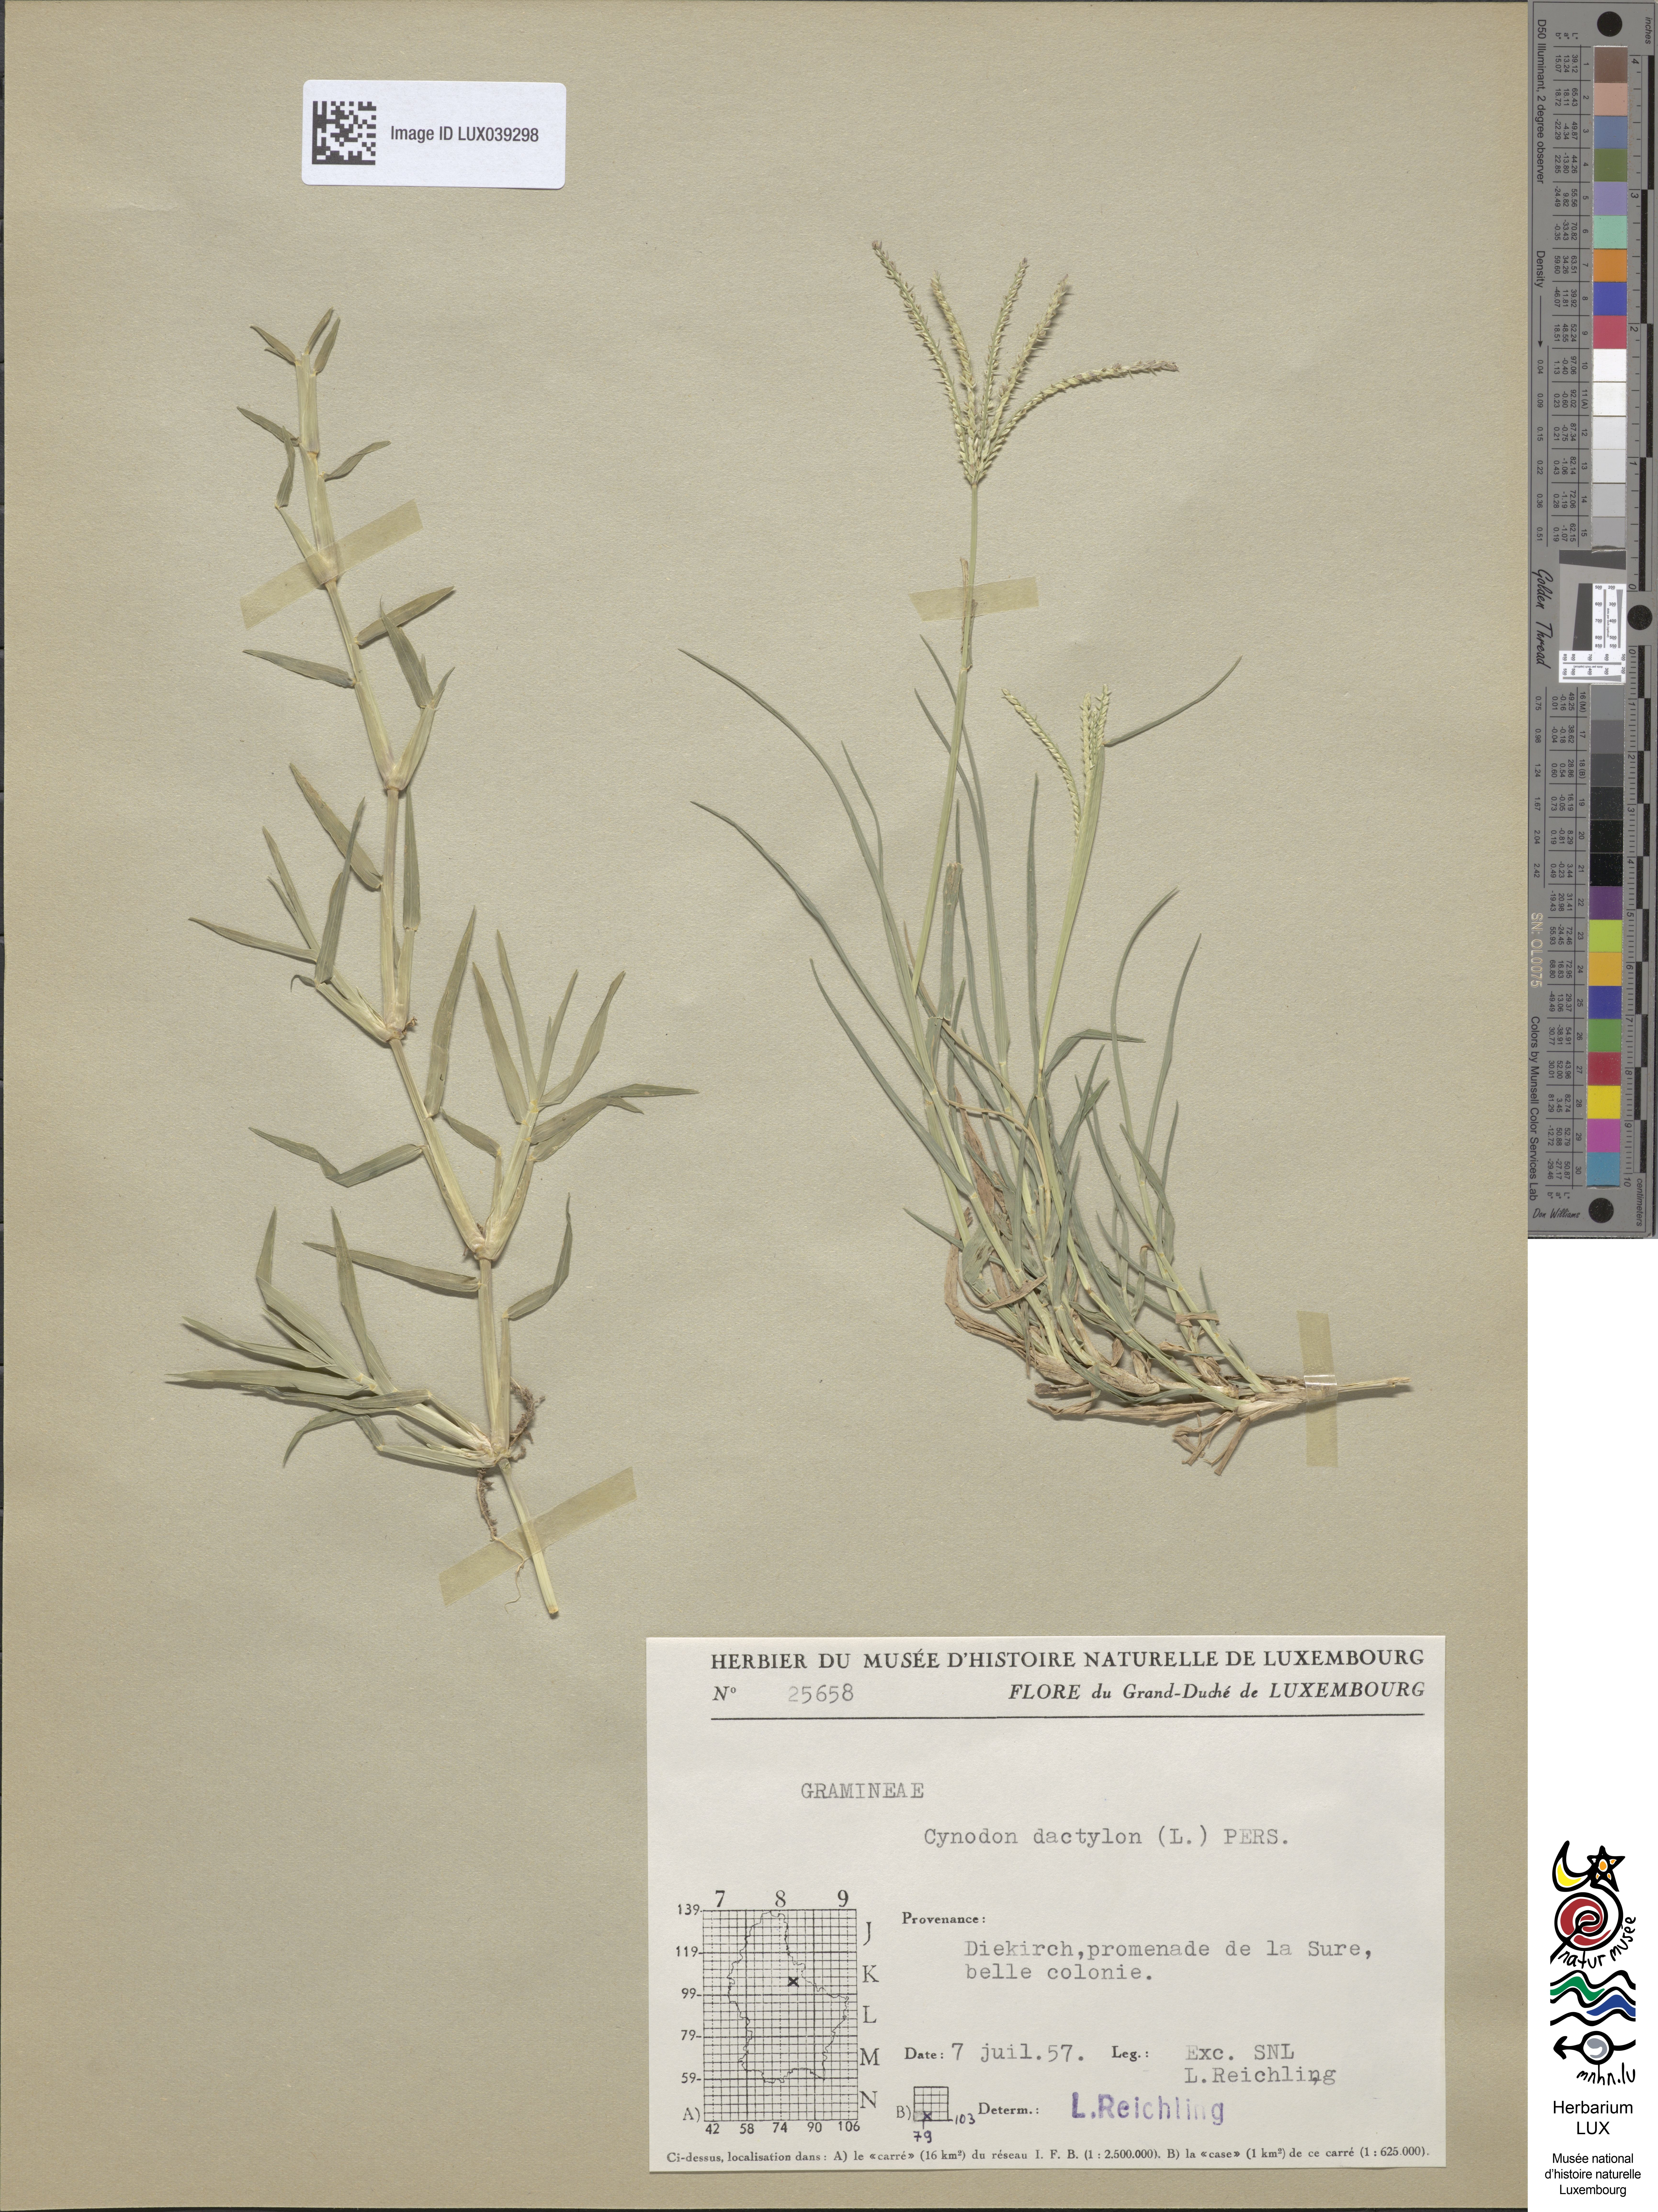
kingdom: Plantae
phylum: Tracheophyta
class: Liliopsida
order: Poales
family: Poaceae
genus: Cynodon
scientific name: Cynodon dactylon
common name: Bermuda grass
